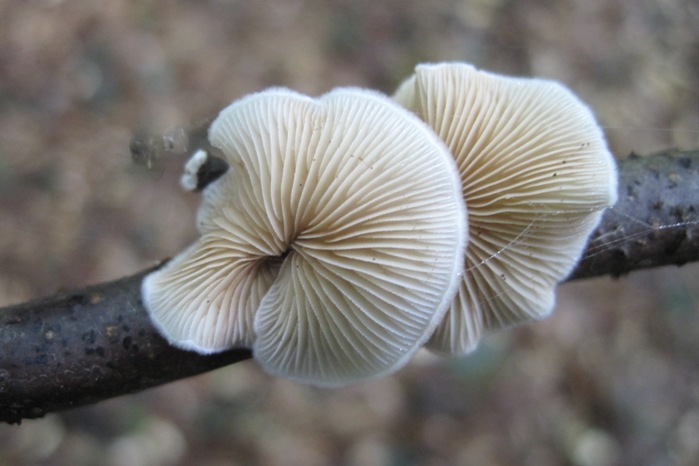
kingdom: Fungi
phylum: Basidiomycota
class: Agaricomycetes
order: Agaricales
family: Crepidotaceae
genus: Crepidotus
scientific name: Crepidotus variabilis
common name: forskelligformet muslingesvamp
